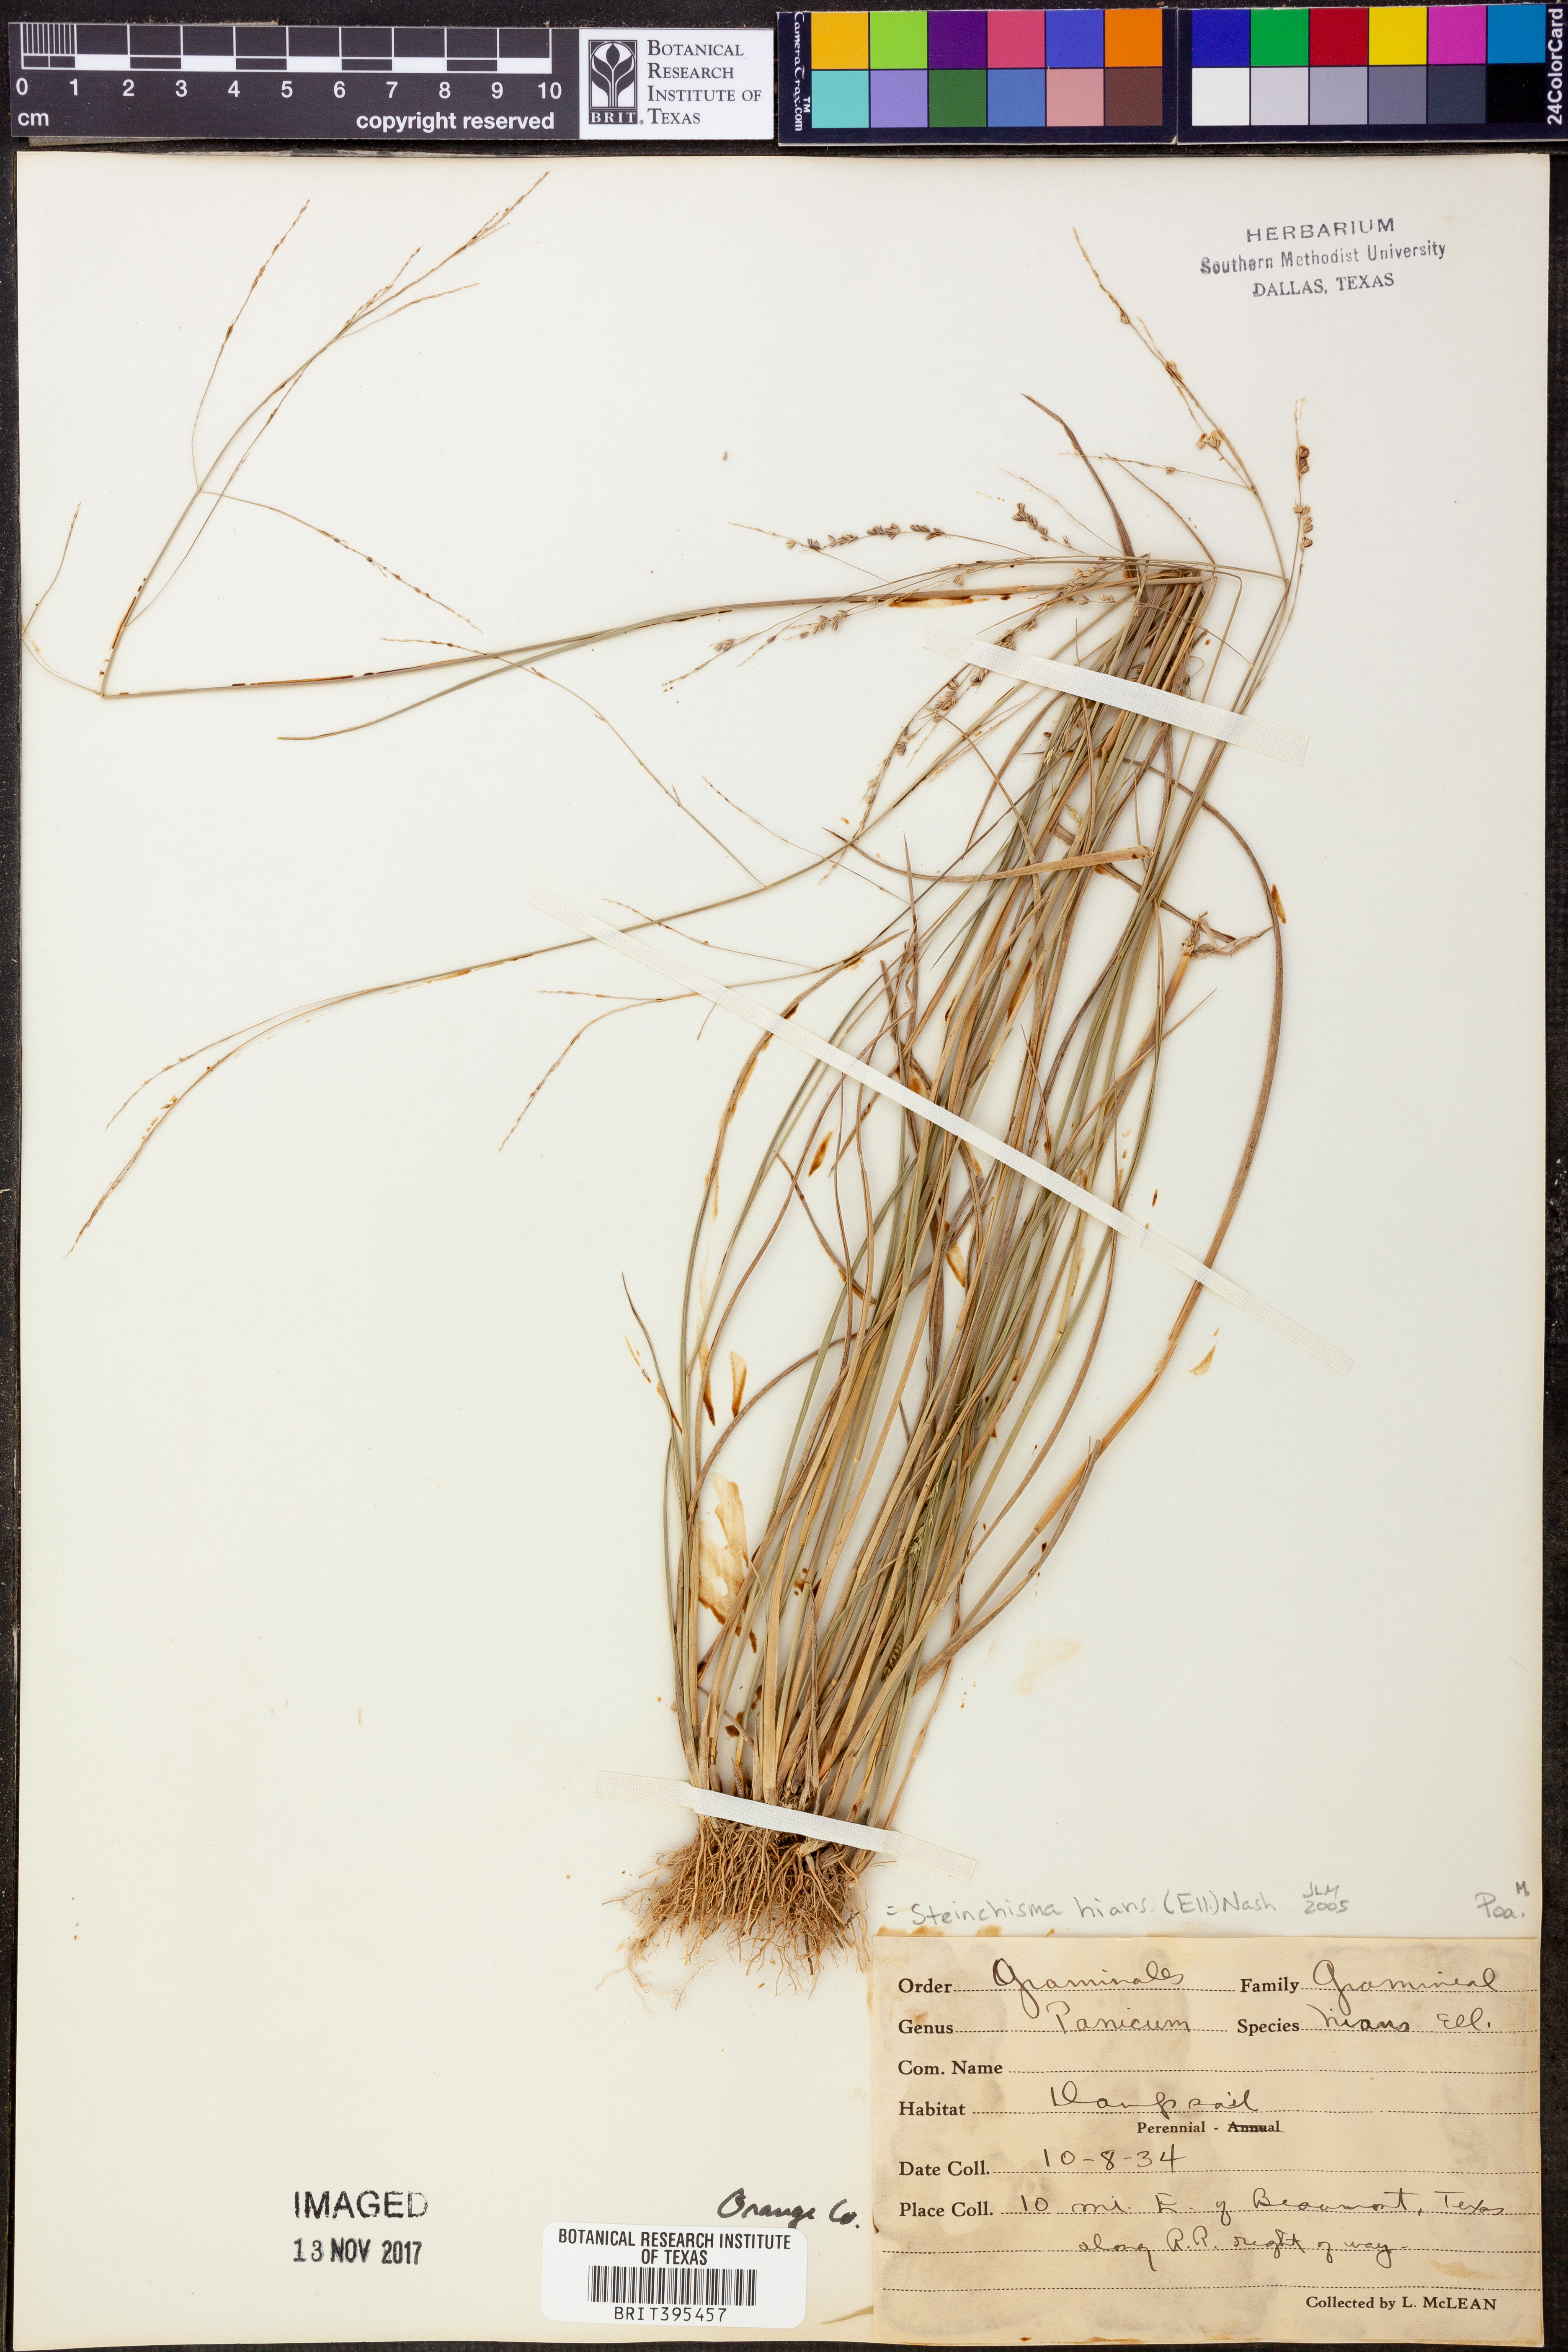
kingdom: Plantae
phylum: Tracheophyta
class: Liliopsida
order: Poales
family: Poaceae
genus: Steinchisma
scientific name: Steinchisma hians
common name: Gaping panic grass
